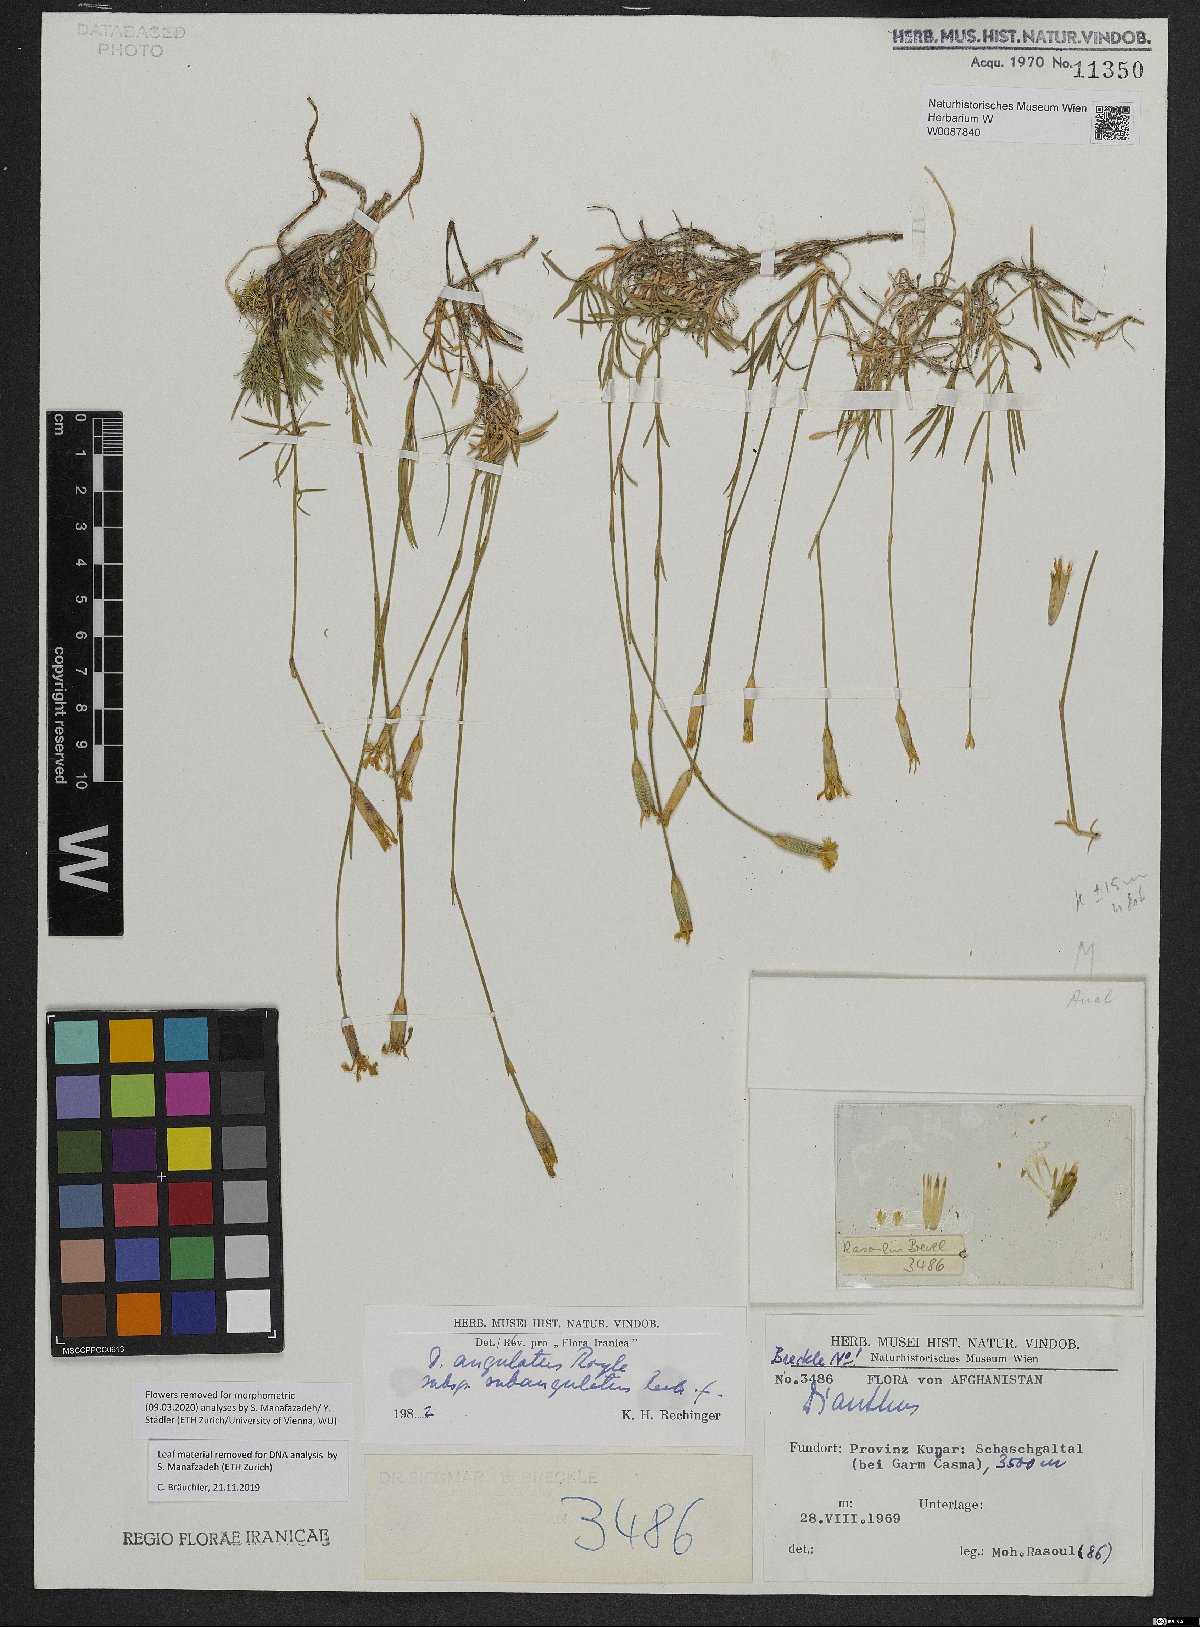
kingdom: Plantae
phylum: Tracheophyta
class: Magnoliopsida
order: Caryophyllales
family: Caryophyllaceae
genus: Dianthus
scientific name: Dianthus angulatus
